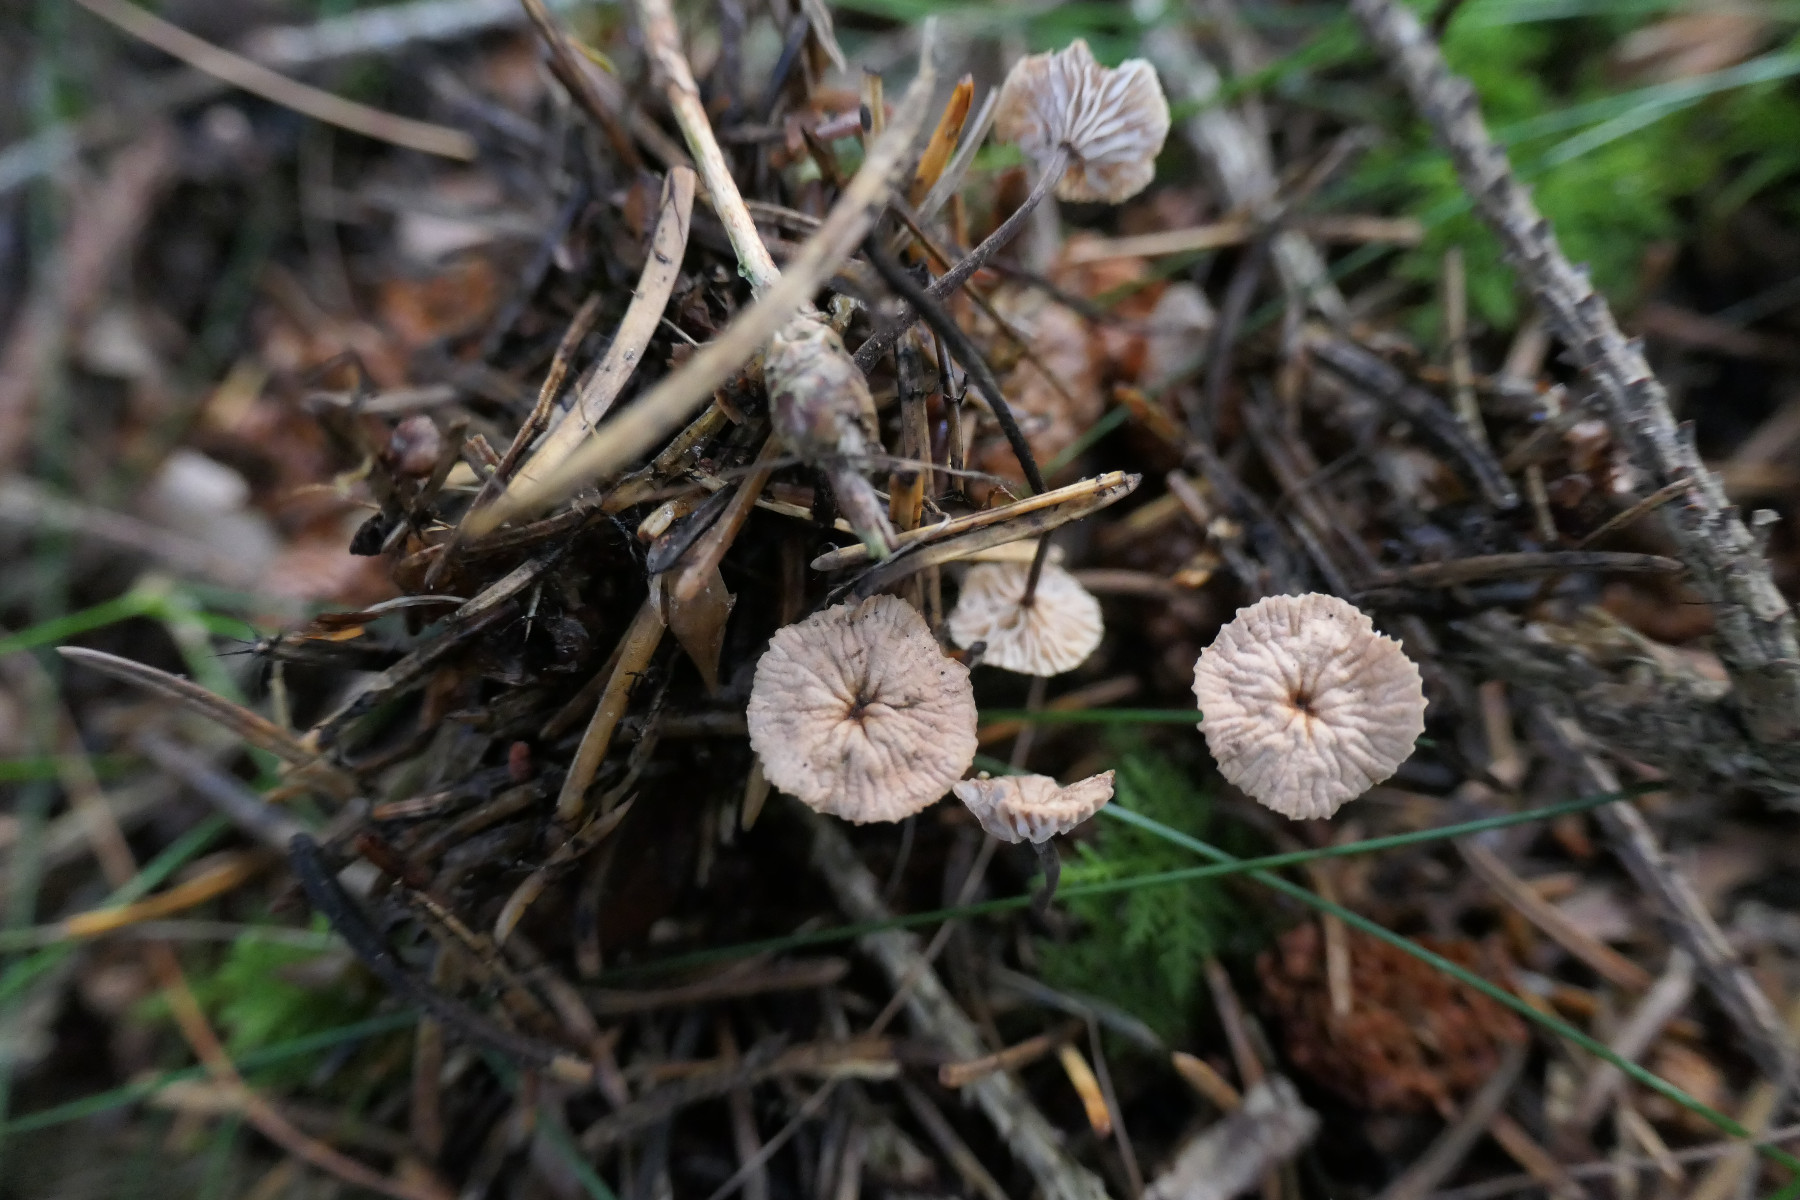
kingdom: Fungi
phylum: Basidiomycota
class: Agaricomycetes
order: Agaricales
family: Omphalotaceae
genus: Paragymnopus
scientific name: Paragymnopus perforans
